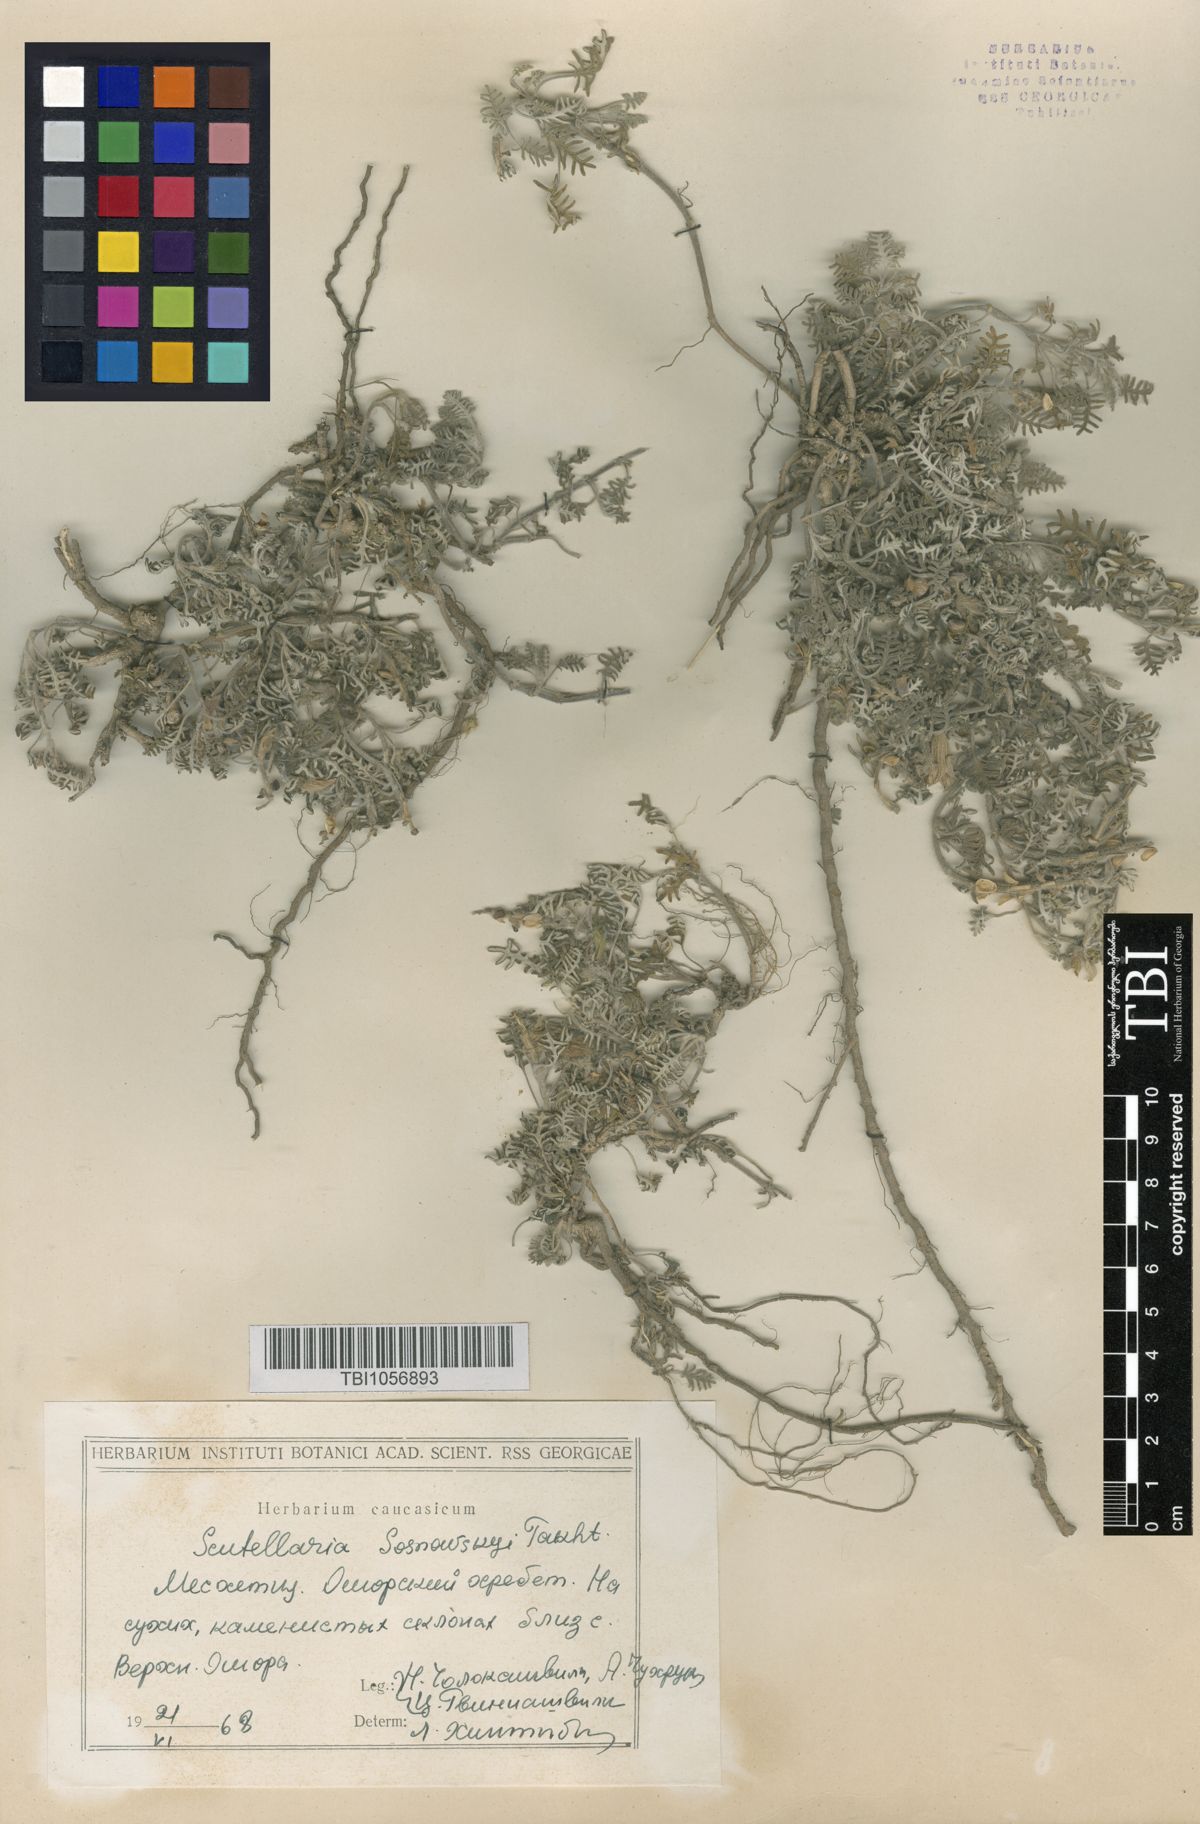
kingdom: Plantae
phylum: Tracheophyta
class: Magnoliopsida
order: Lamiales
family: Lamiaceae
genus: Scutellaria
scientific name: Scutellaria sosnowskyi
